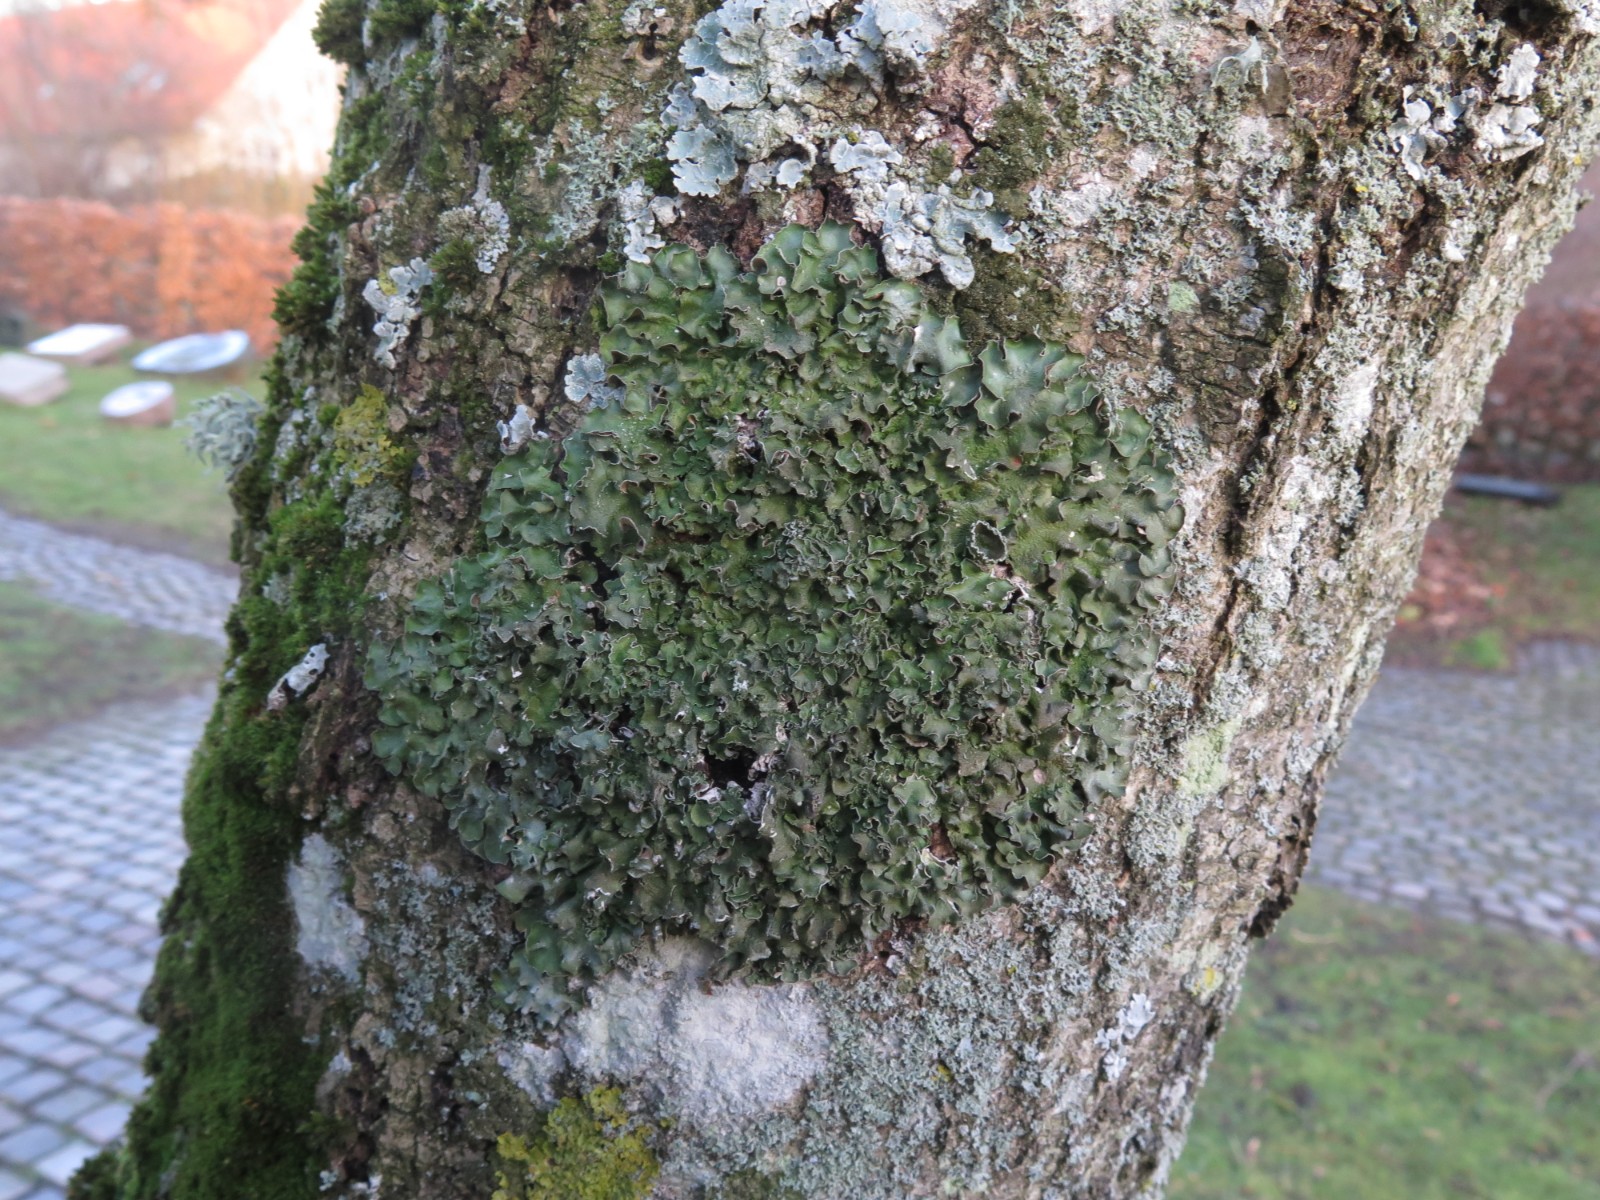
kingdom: Fungi
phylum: Ascomycota
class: Lecanoromycetes
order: Lecanorales
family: Parmeliaceae
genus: Pleurosticta
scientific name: Pleurosticta acetabulum
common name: stor skållav
